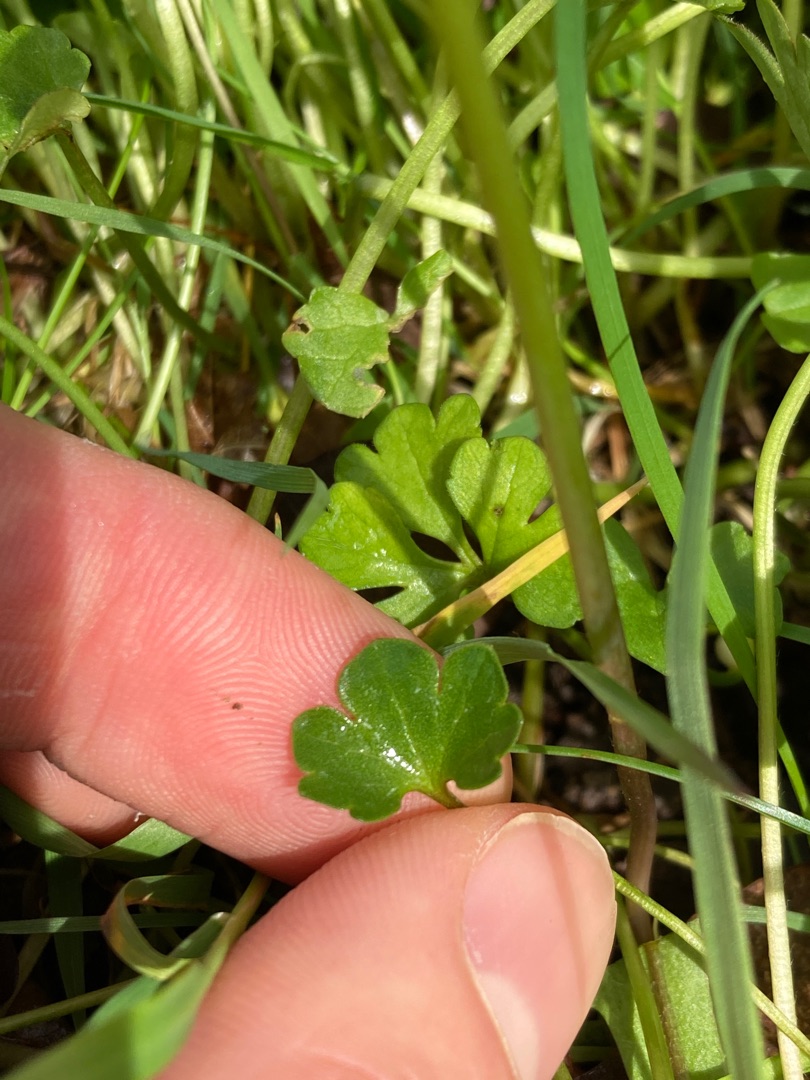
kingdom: Plantae
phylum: Tracheophyta
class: Magnoliopsida
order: Ranunculales
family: Ranunculaceae
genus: Ranunculus
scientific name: Ranunculus auricomus
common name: Nyrebladet ranunkel
